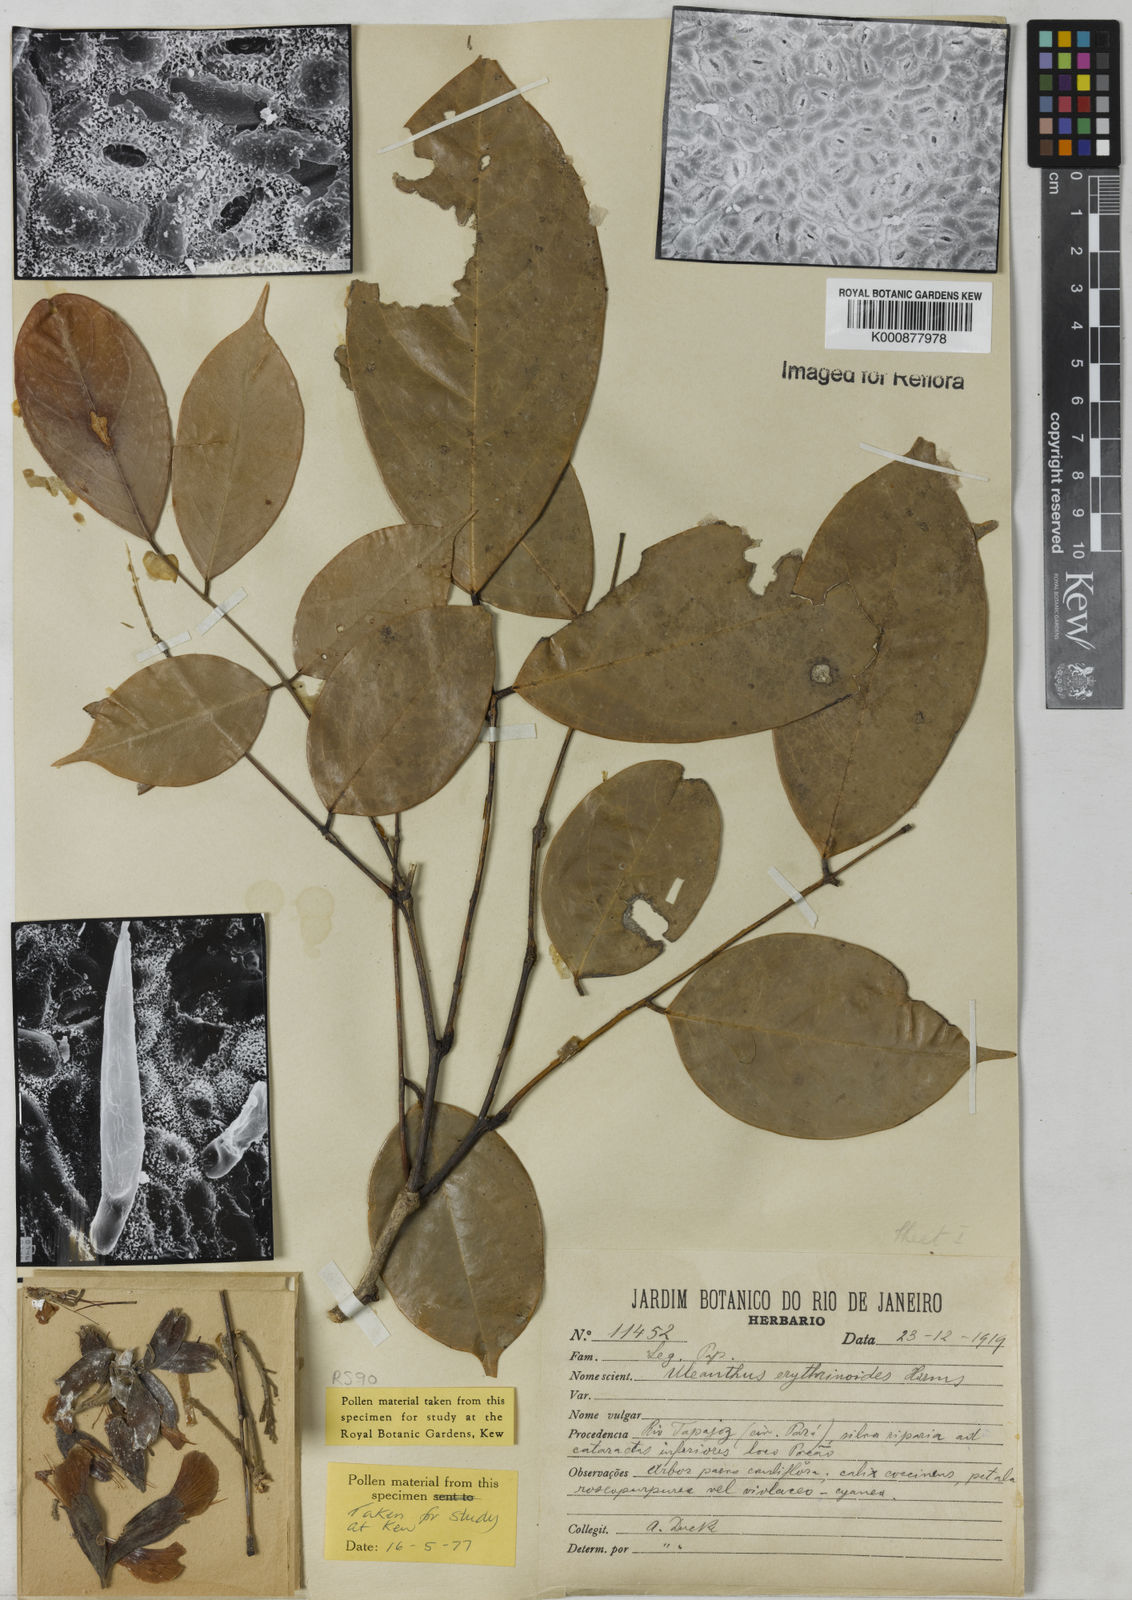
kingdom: Plantae
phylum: Tracheophyta
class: Magnoliopsida
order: Fabales
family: Fabaceae
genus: Uleanthus
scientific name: Uleanthus erythrinoides
